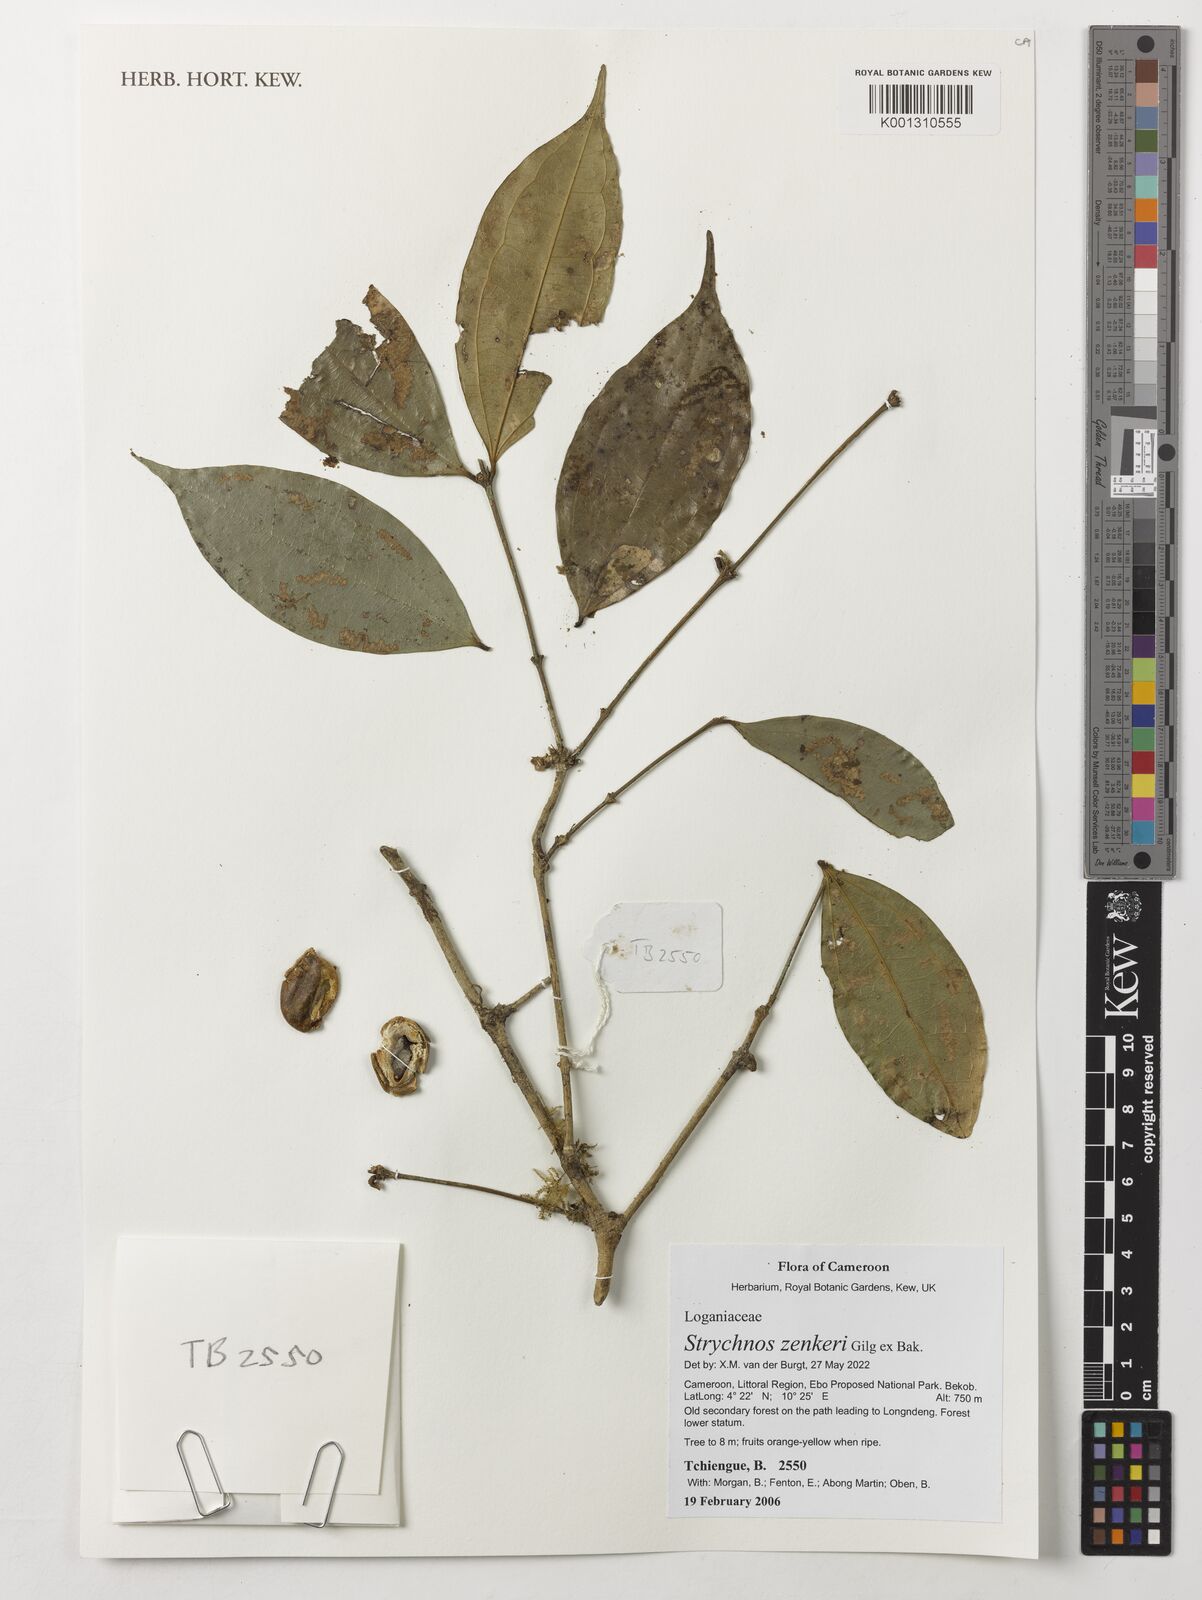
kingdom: Plantae
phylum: Tracheophyta
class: Magnoliopsida
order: Gentianales
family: Loganiaceae
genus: Strychnos
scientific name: Strychnos zenkeri
